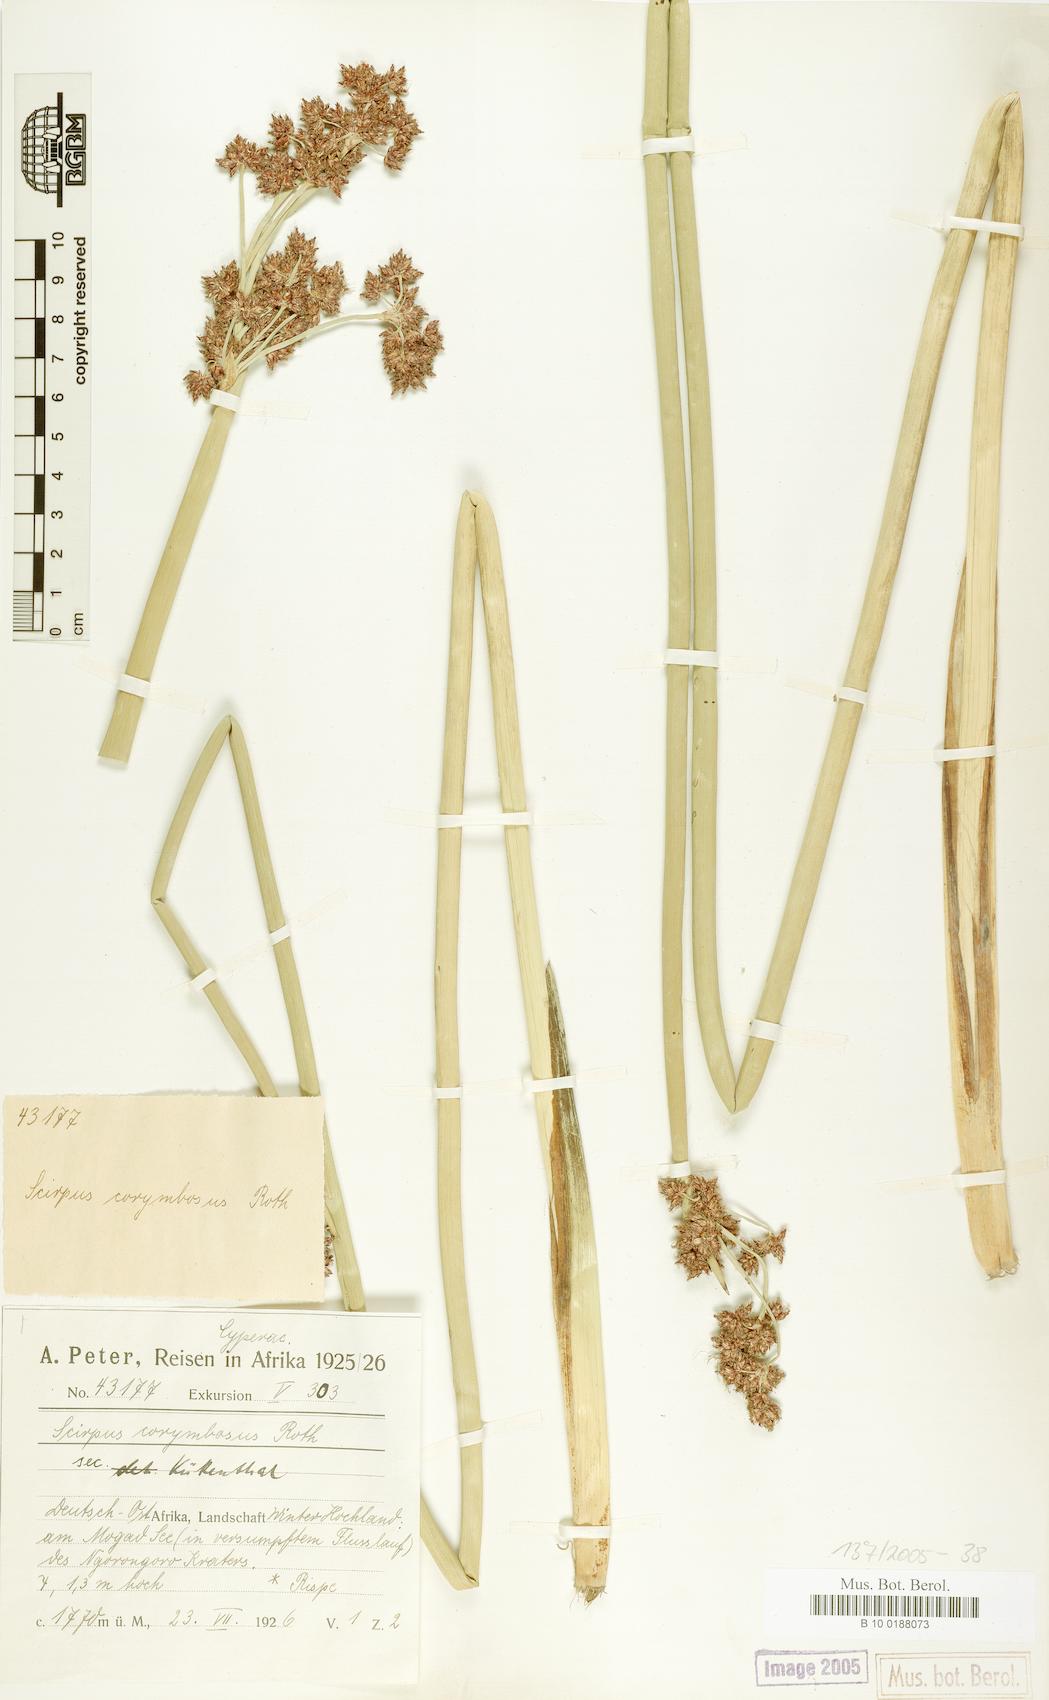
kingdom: Plantae
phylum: Tracheophyta
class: Liliopsida
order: Poales
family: Cyperaceae
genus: Schoenoplectiella
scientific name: Schoenoplectiella brachyceras
